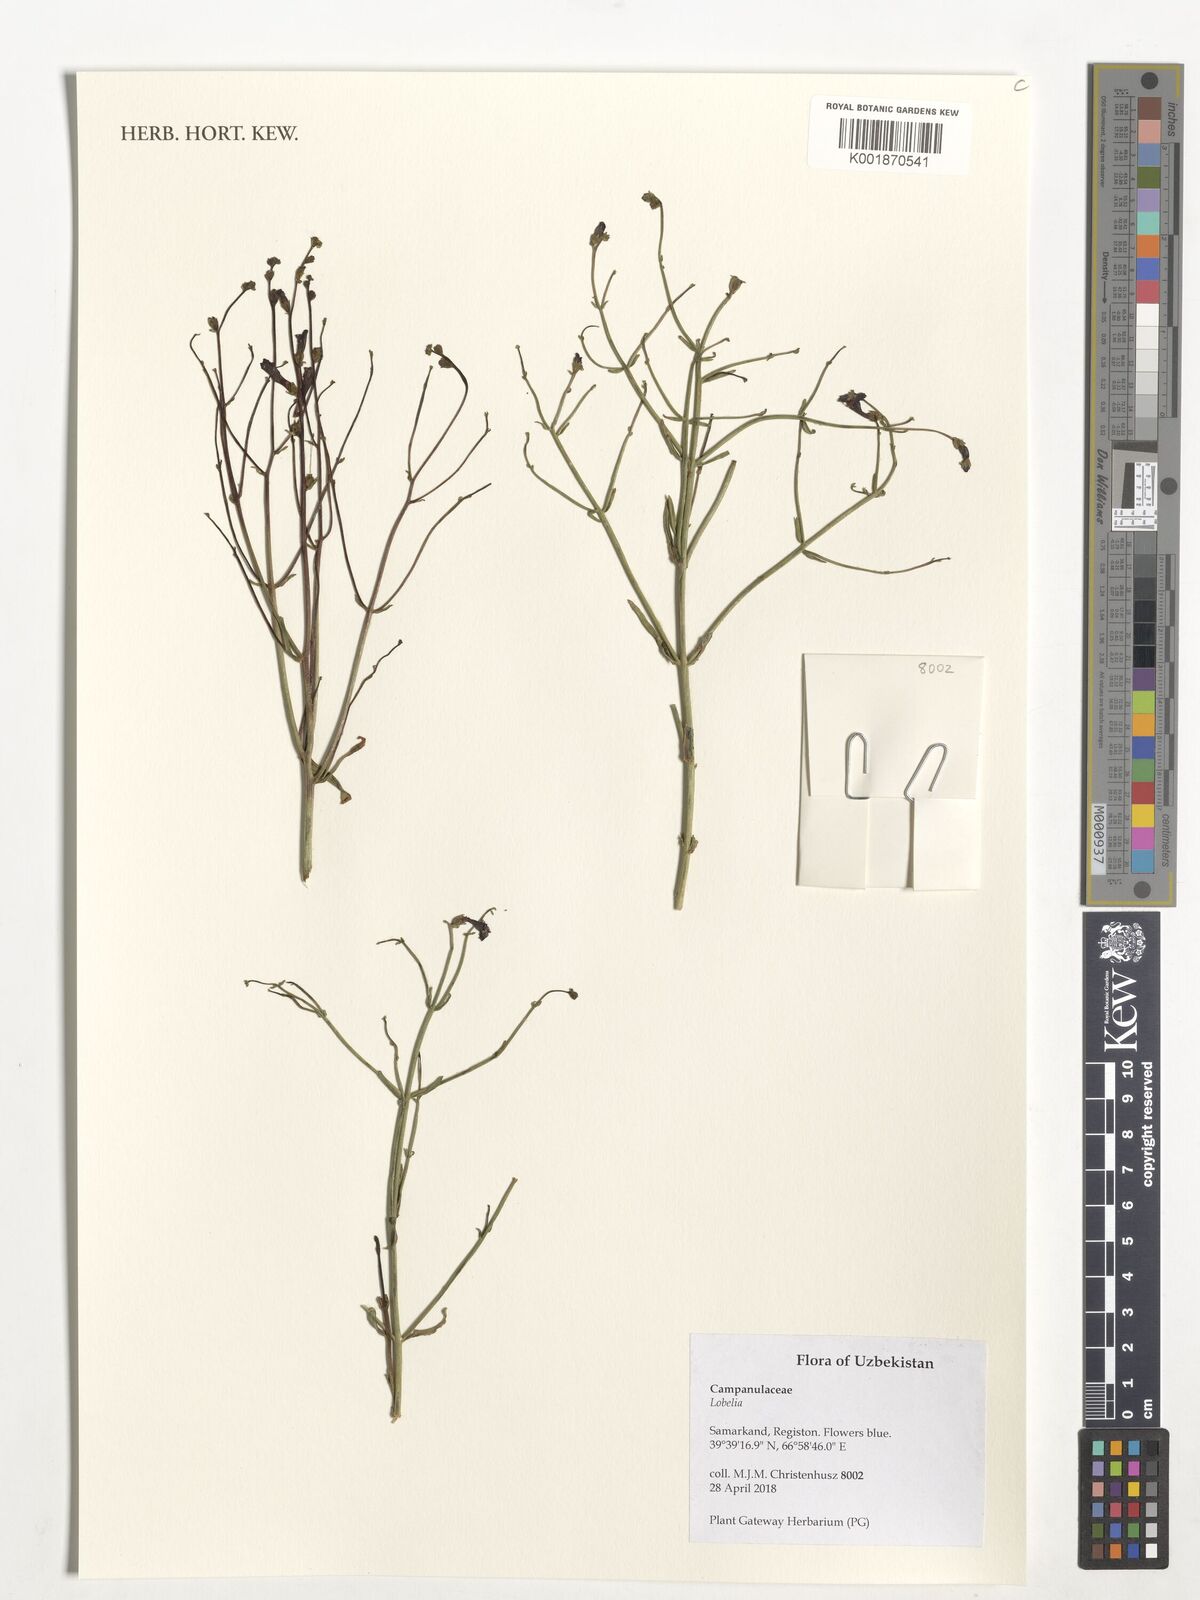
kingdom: Plantae
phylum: Tracheophyta
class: Magnoliopsida
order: Asterales
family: Campanulaceae
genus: Lobelia
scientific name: Lobelia
